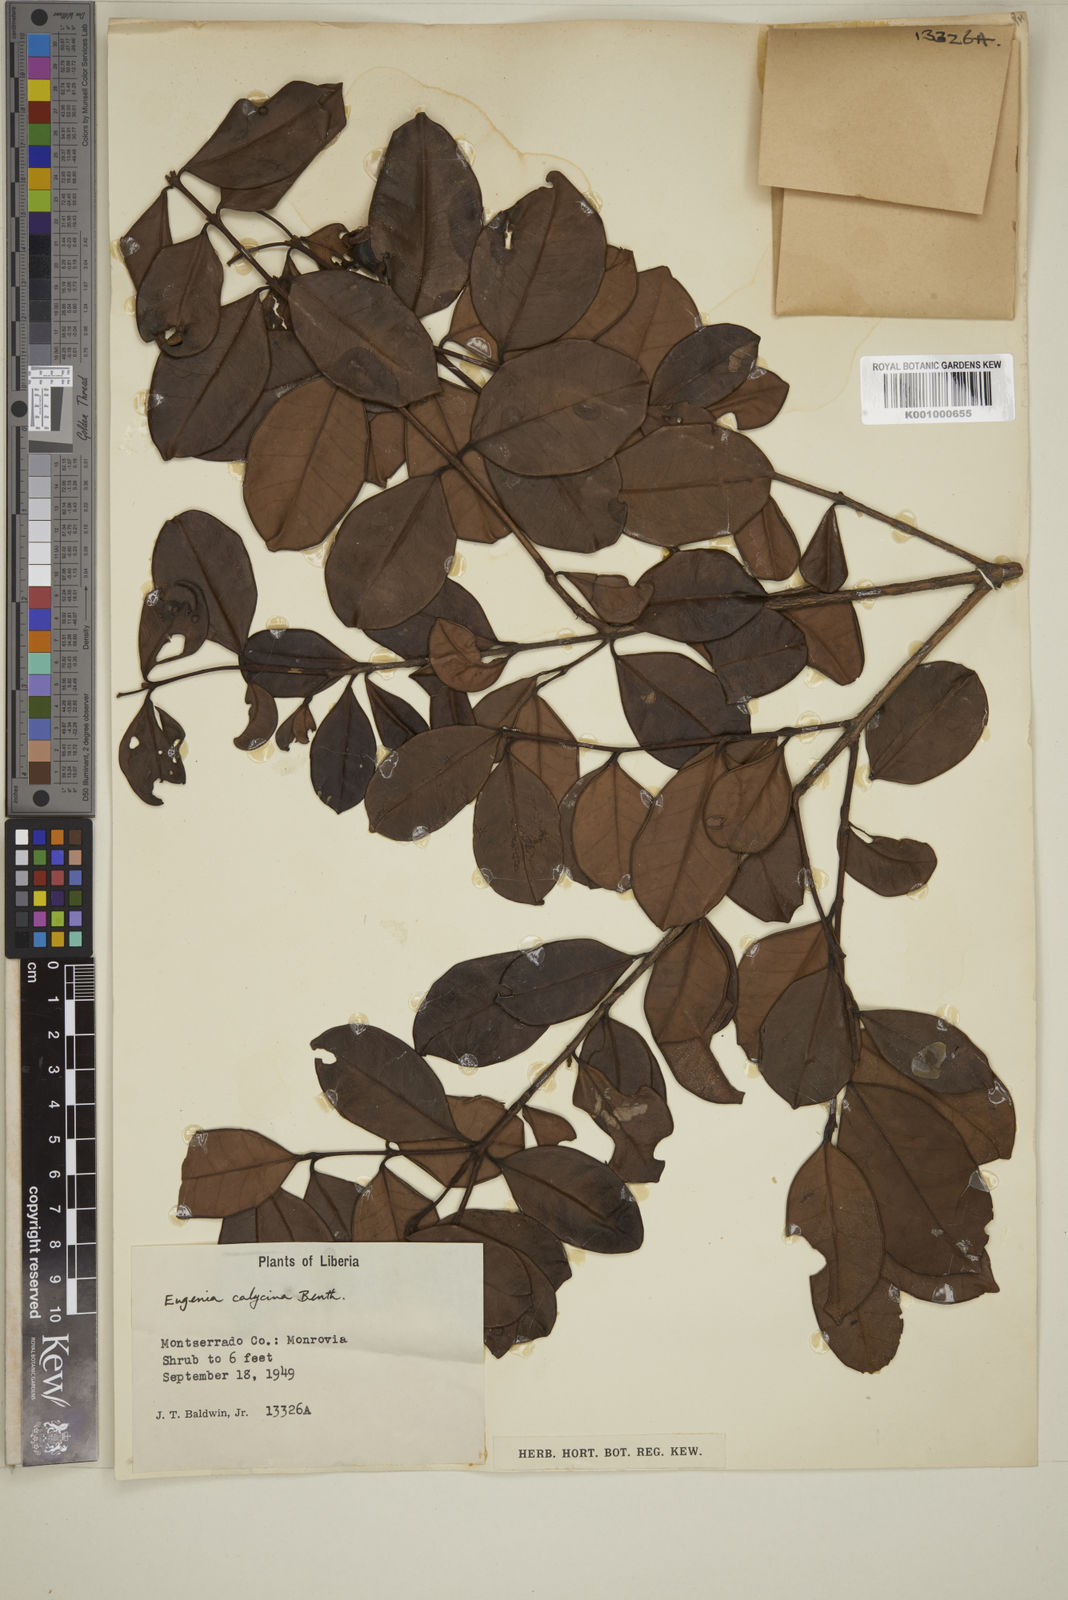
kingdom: Plantae
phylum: Tracheophyta
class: Magnoliopsida
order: Myrtales
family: Myrtaceae
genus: Eugenia
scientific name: Eugenia liberiana
